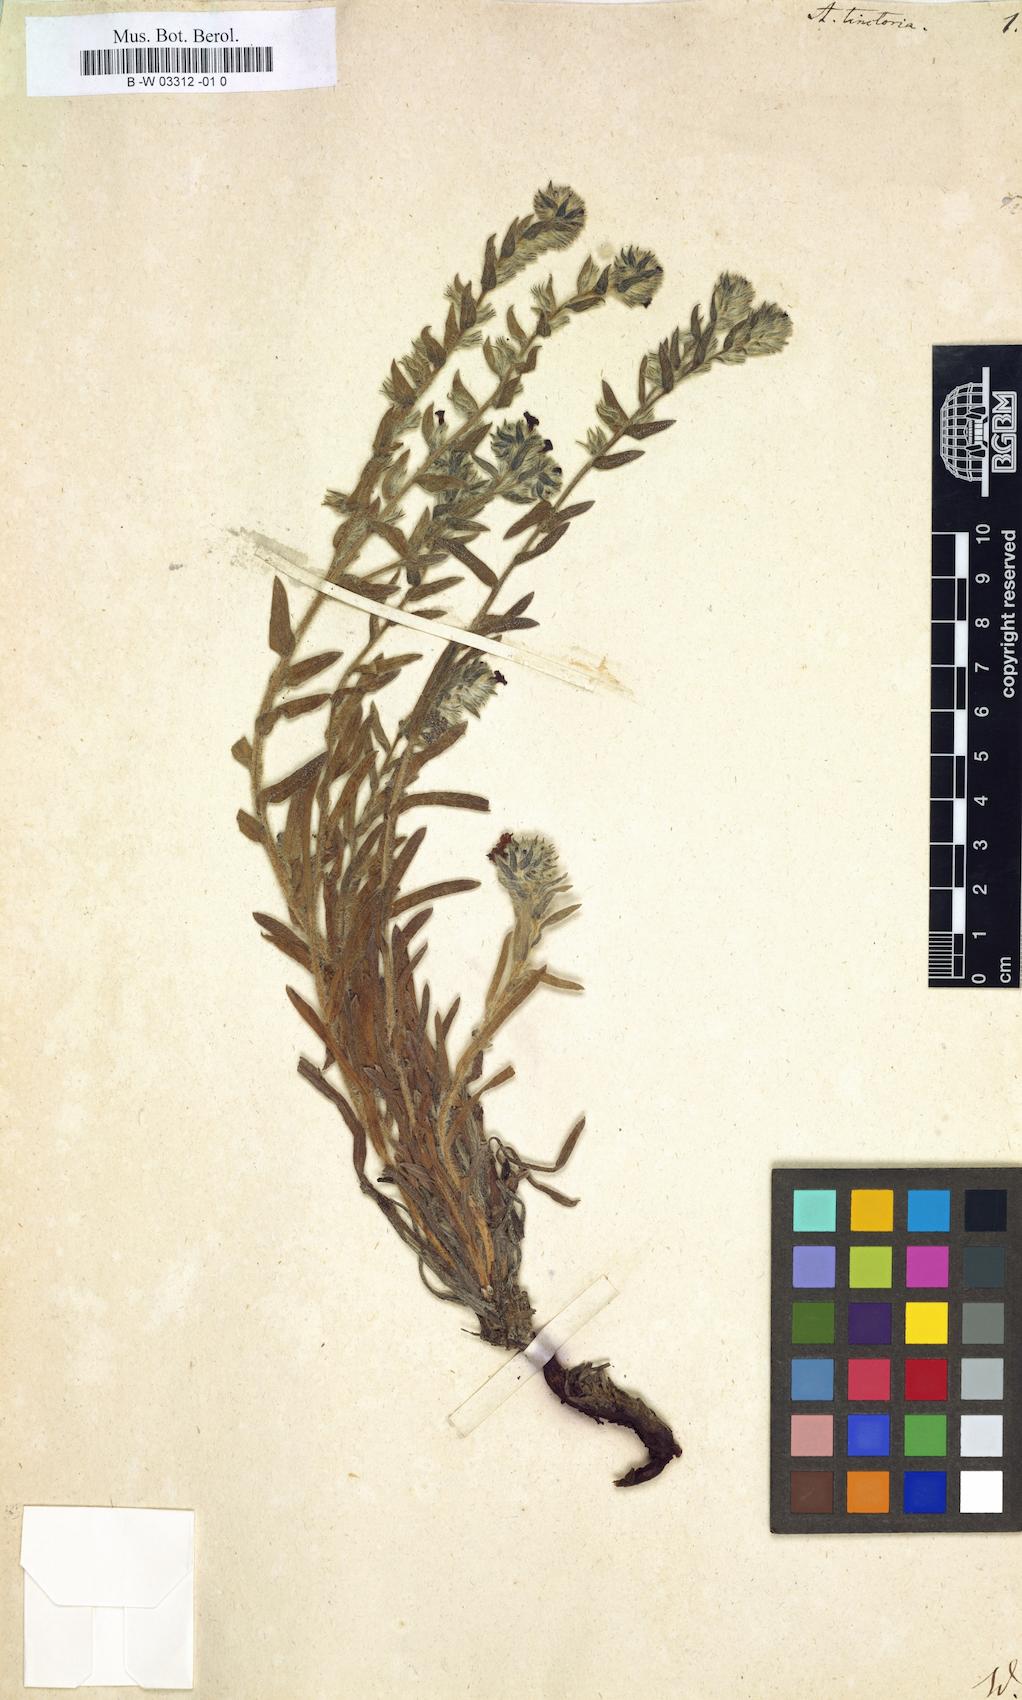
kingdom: Plantae
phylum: Tracheophyta
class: Magnoliopsida
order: Boraginales
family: Boraginaceae
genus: Alkanna
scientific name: Alkanna tinctoria
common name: Dyer's-alkanet
